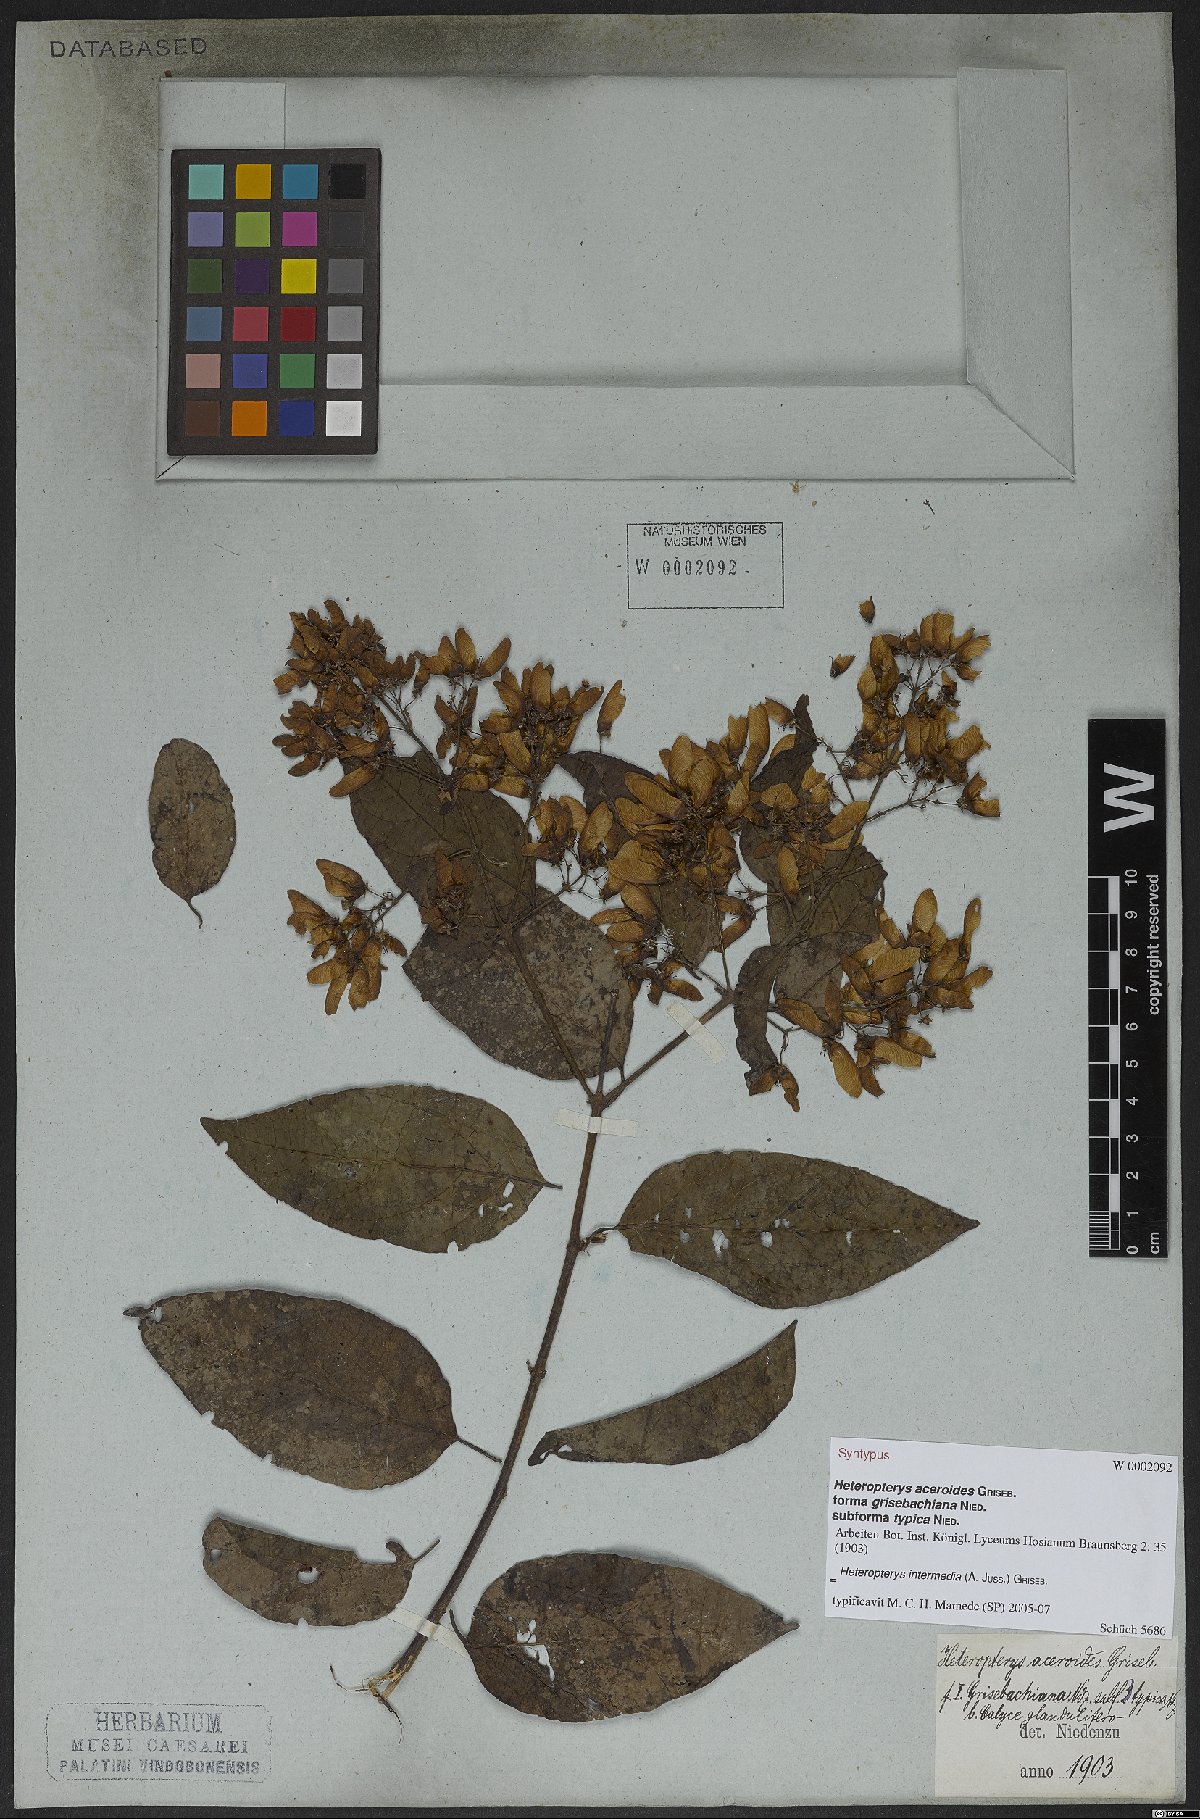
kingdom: Plantae
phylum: Tracheophyta
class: Magnoliopsida
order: Malpighiales
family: Malpighiaceae
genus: Heteropterys
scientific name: Heteropterys intermedia
